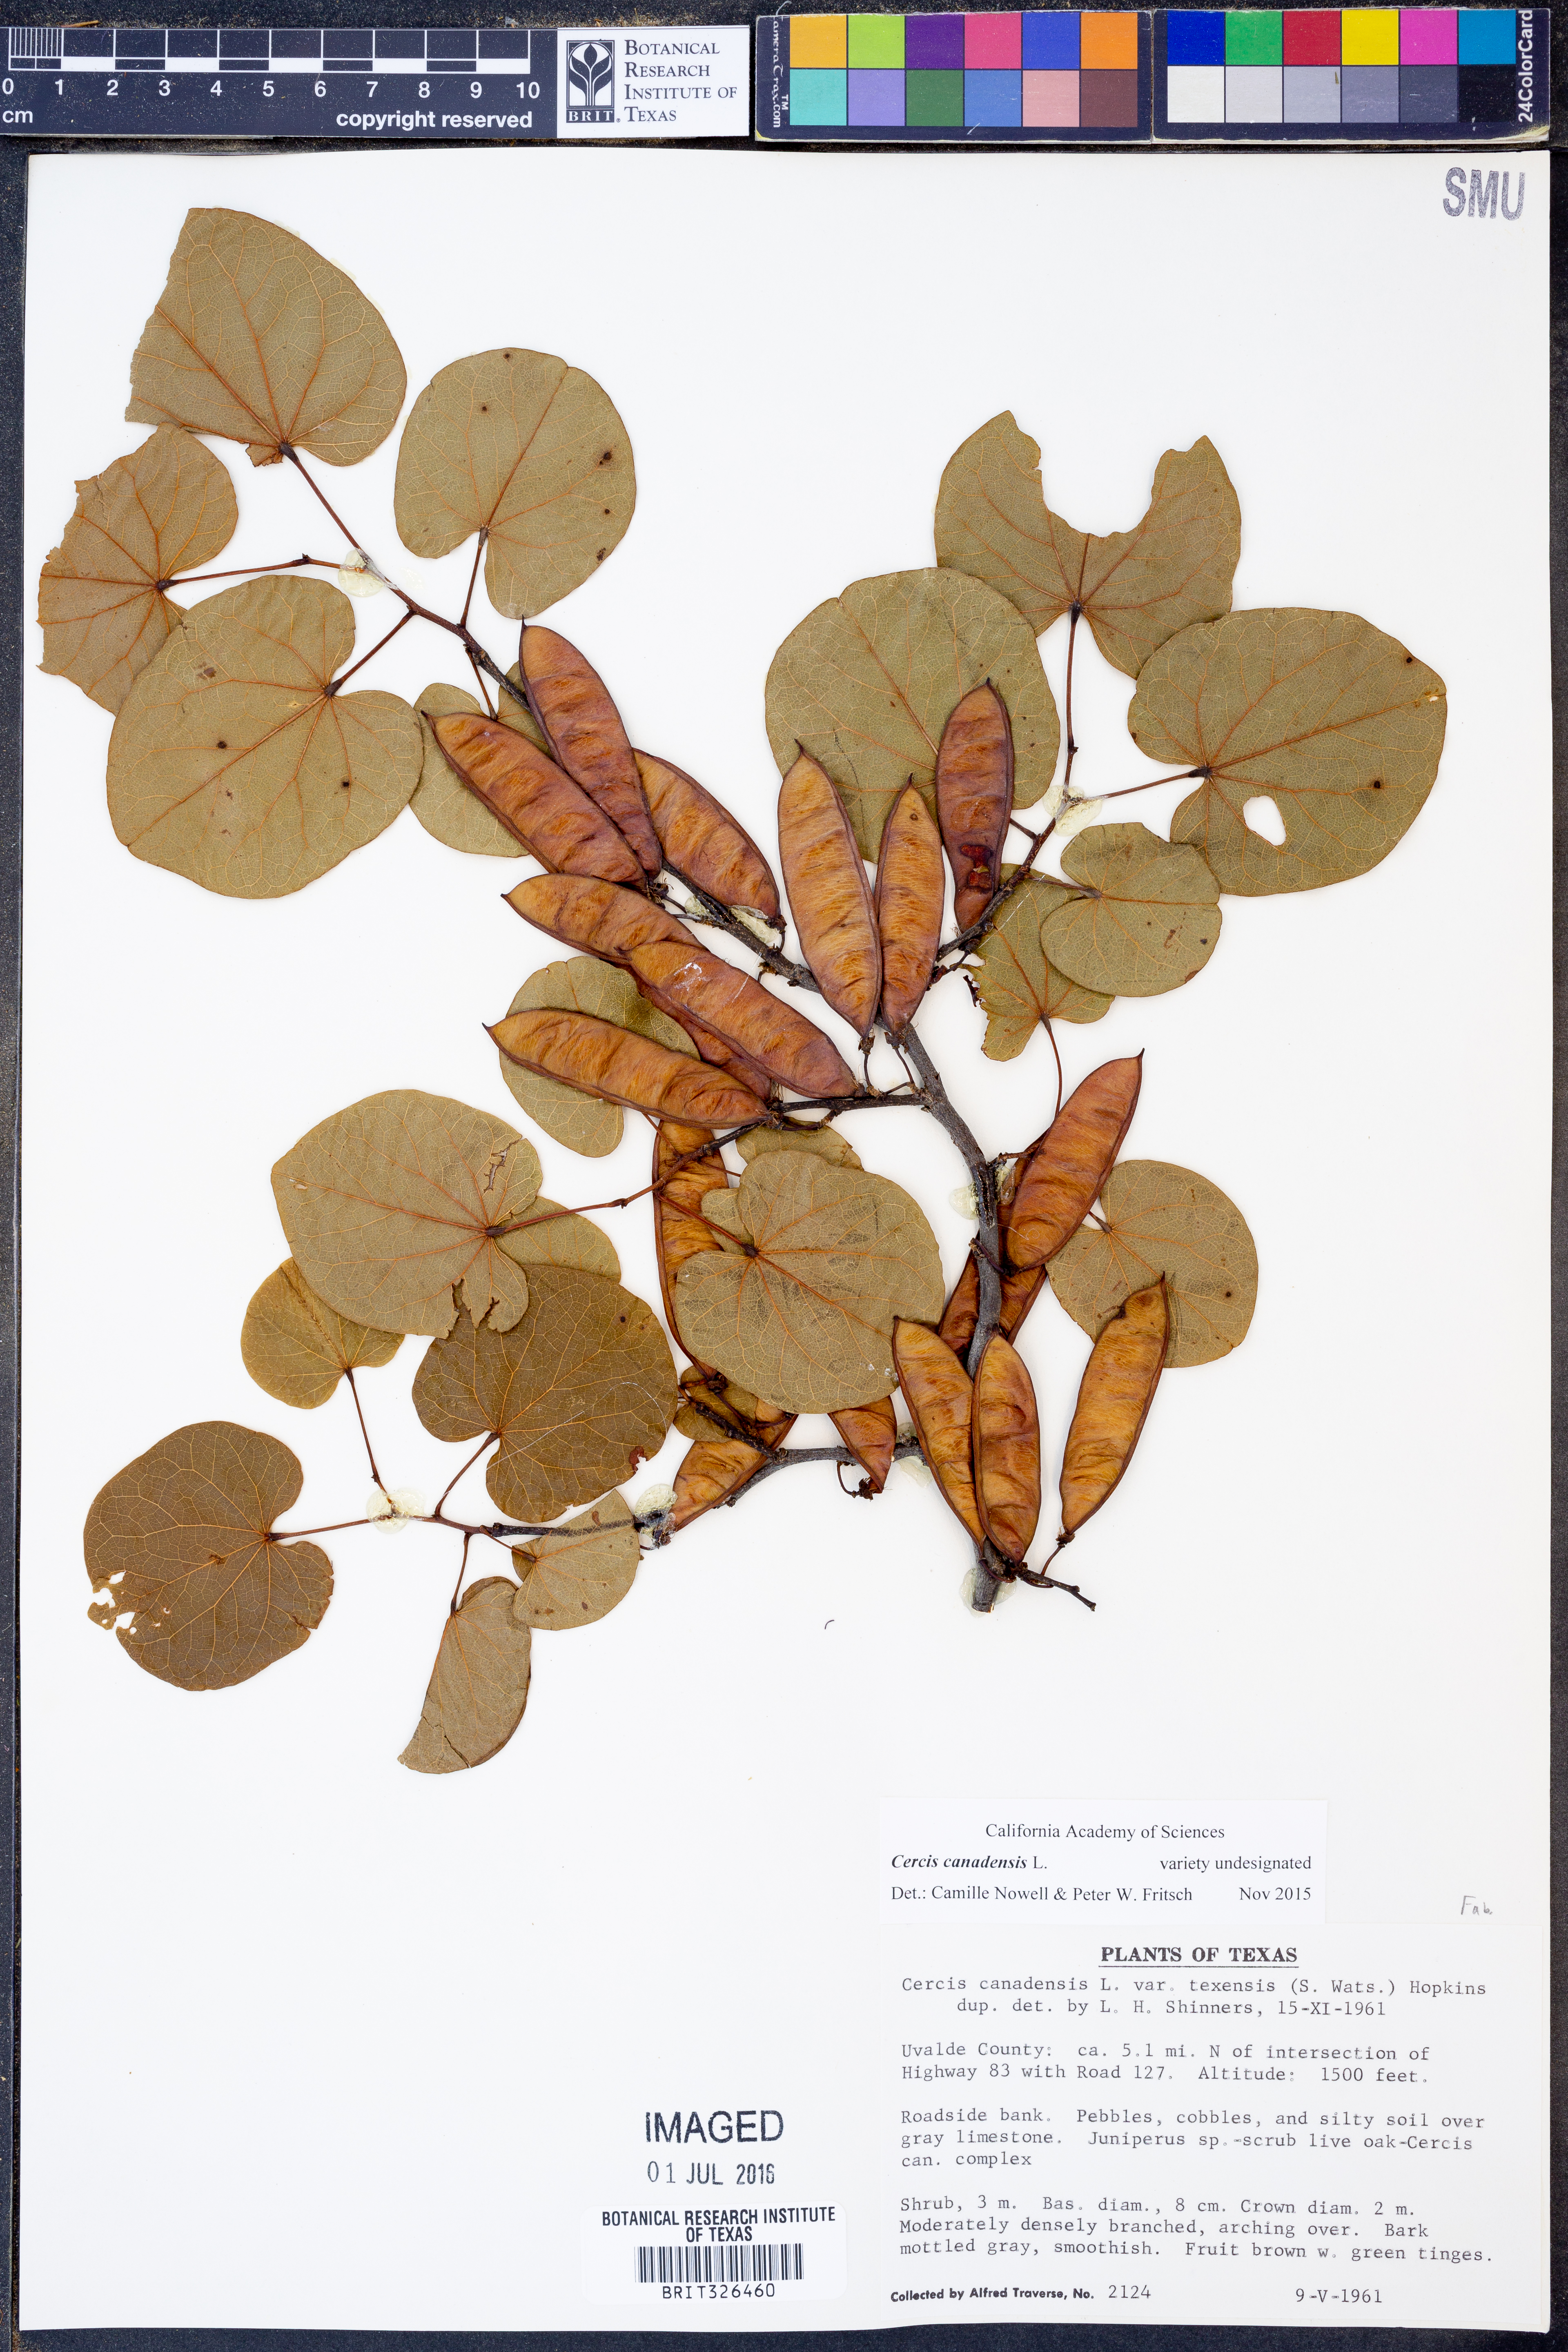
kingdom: Plantae
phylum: Tracheophyta
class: Magnoliopsida
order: Fabales
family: Fabaceae
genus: Cercis
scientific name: Cercis canadensis
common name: Eastern redbud
